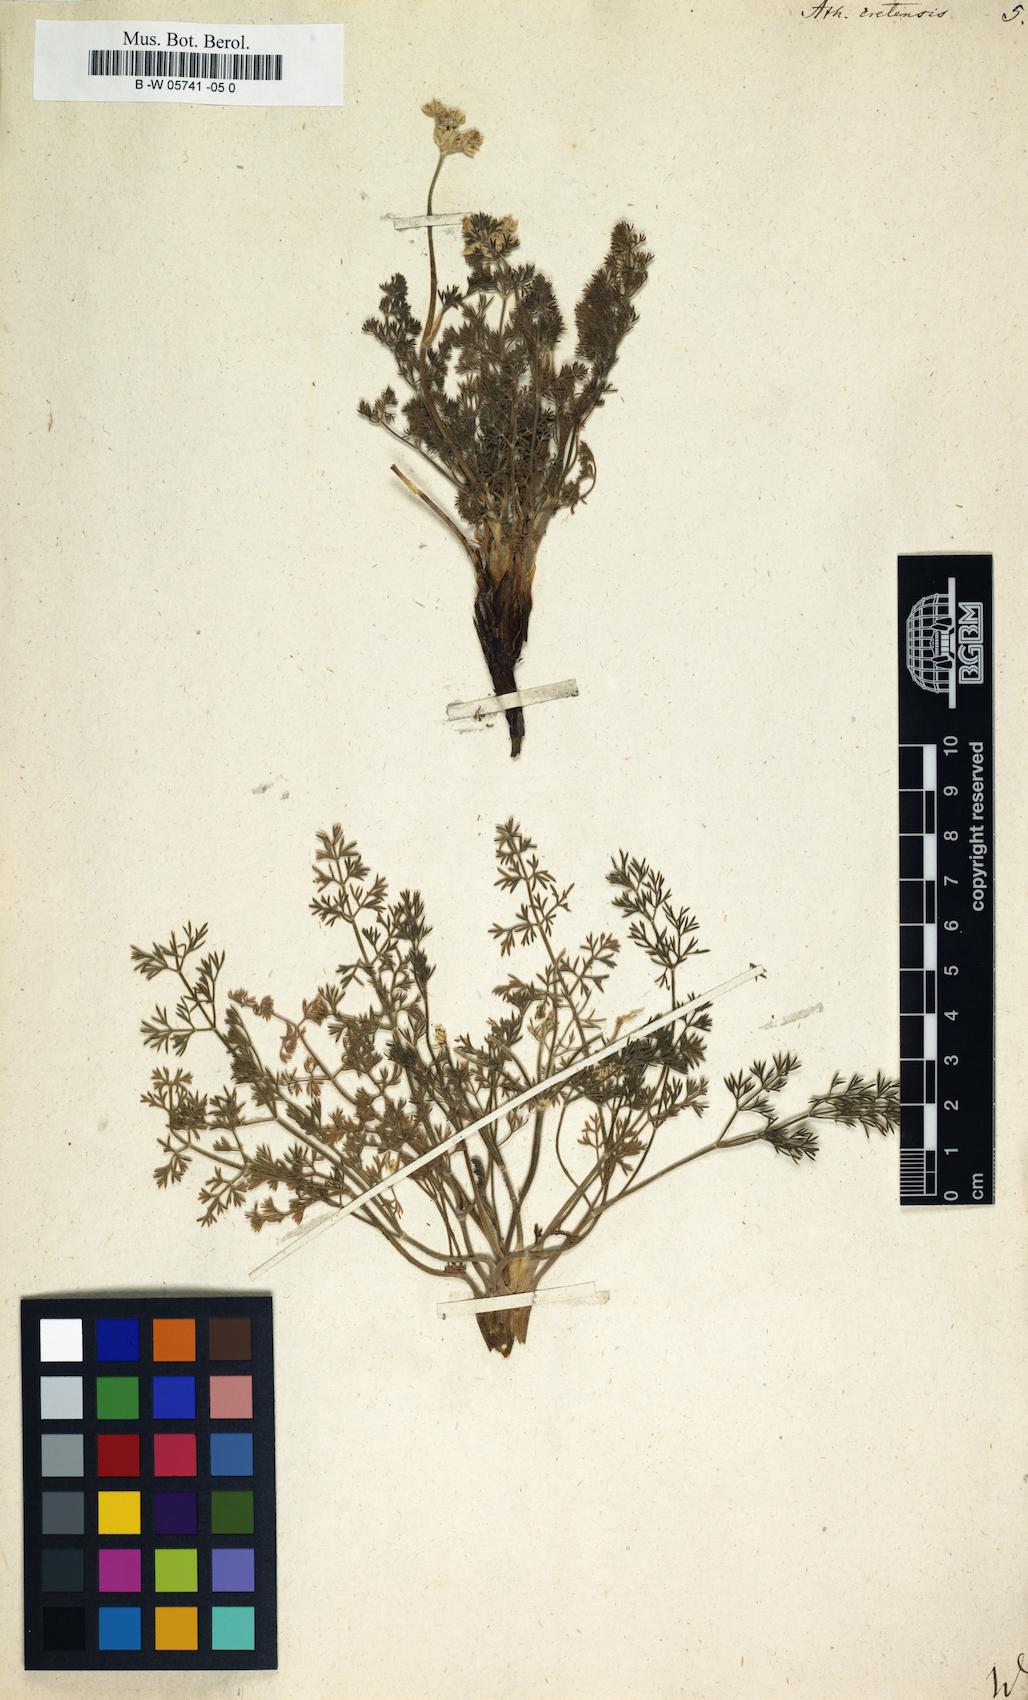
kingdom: Plantae
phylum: Tracheophyta
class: Magnoliopsida
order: Apiales
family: Apiaceae
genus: Athamanta
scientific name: Athamanta cretensis
